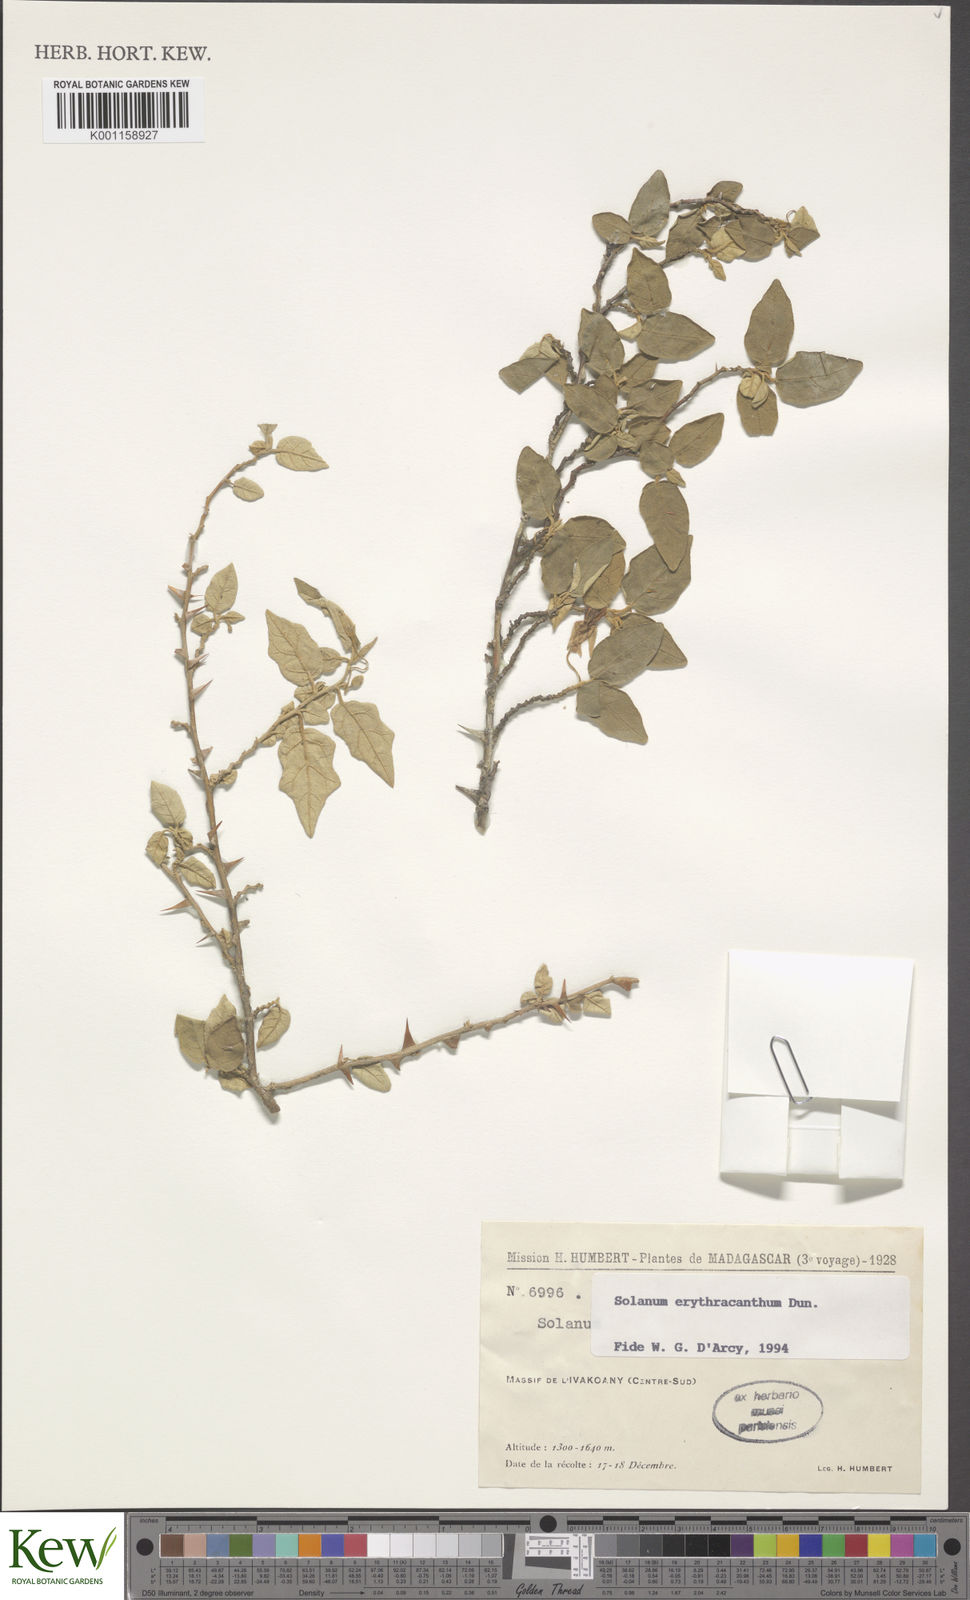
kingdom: Plantae
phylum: Tracheophyta
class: Magnoliopsida
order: Solanales
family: Solanaceae
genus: Solanum
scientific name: Solanum erythracanthum
